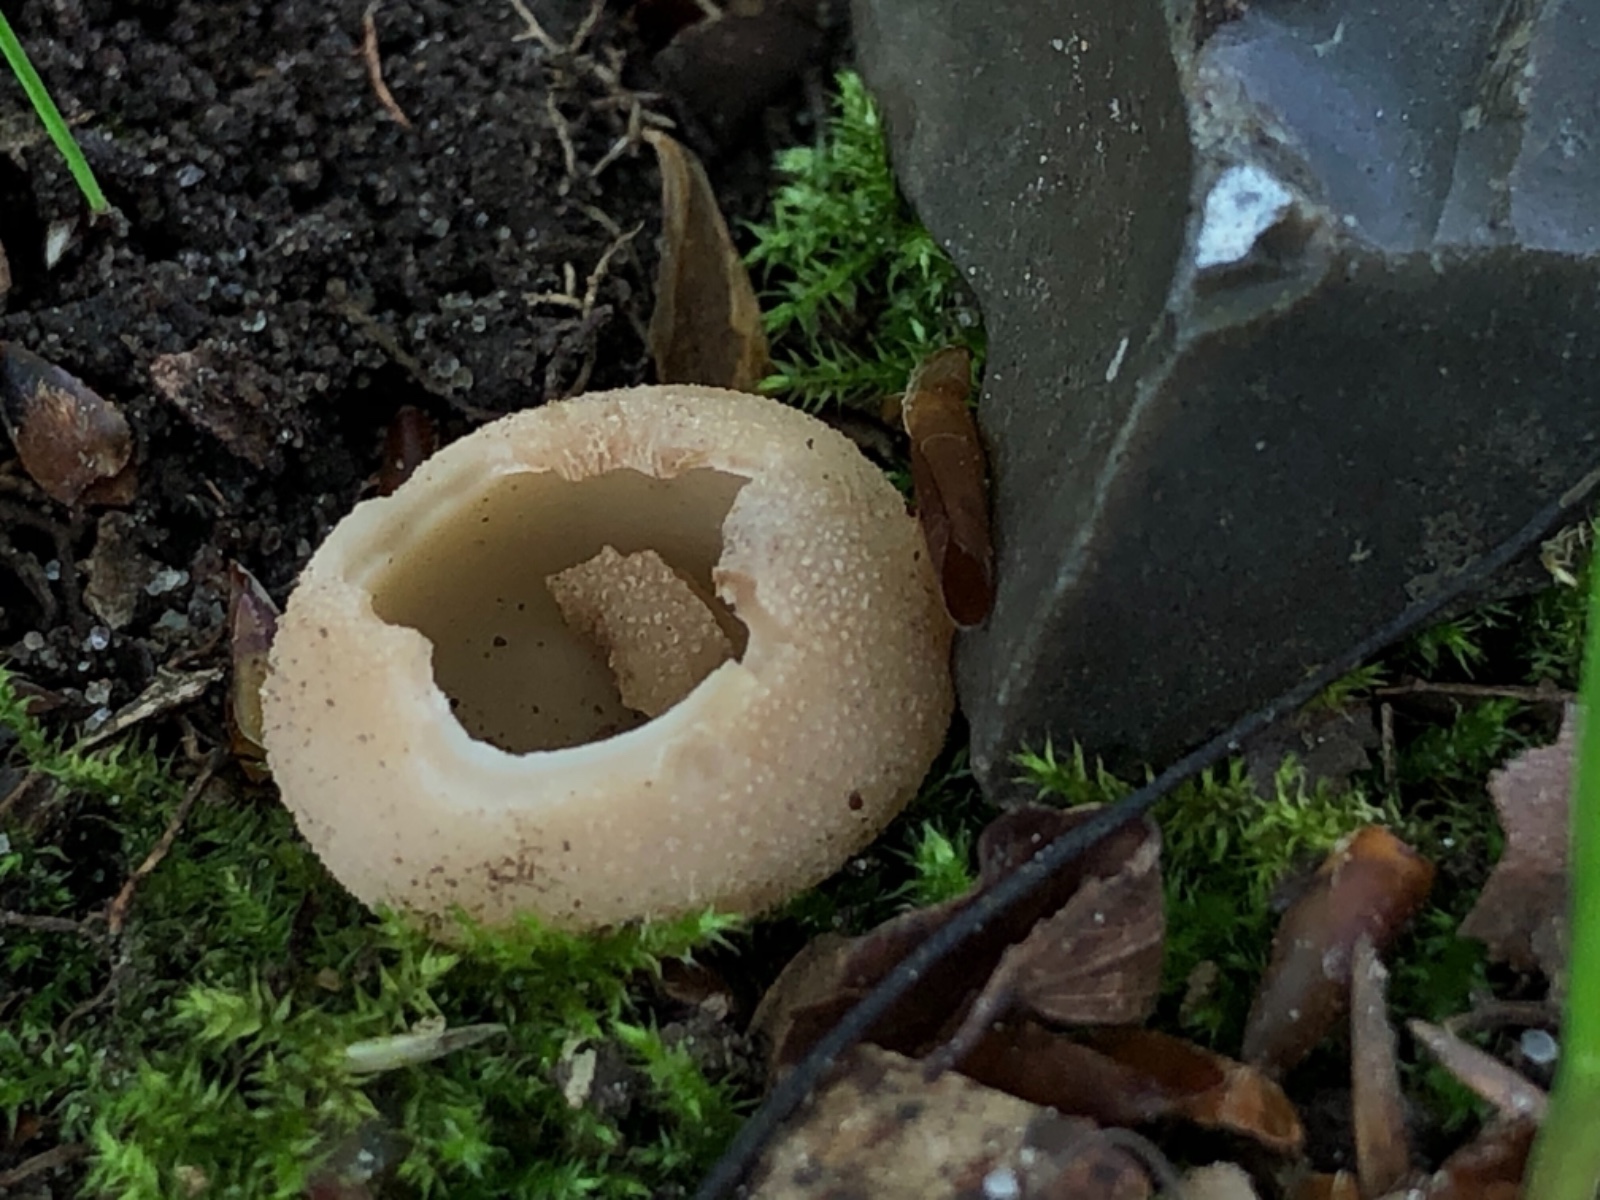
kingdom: Fungi
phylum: Ascomycota
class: Pezizomycetes
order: Pezizales
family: Pyronemataceae
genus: Tarzetta
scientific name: Tarzetta
